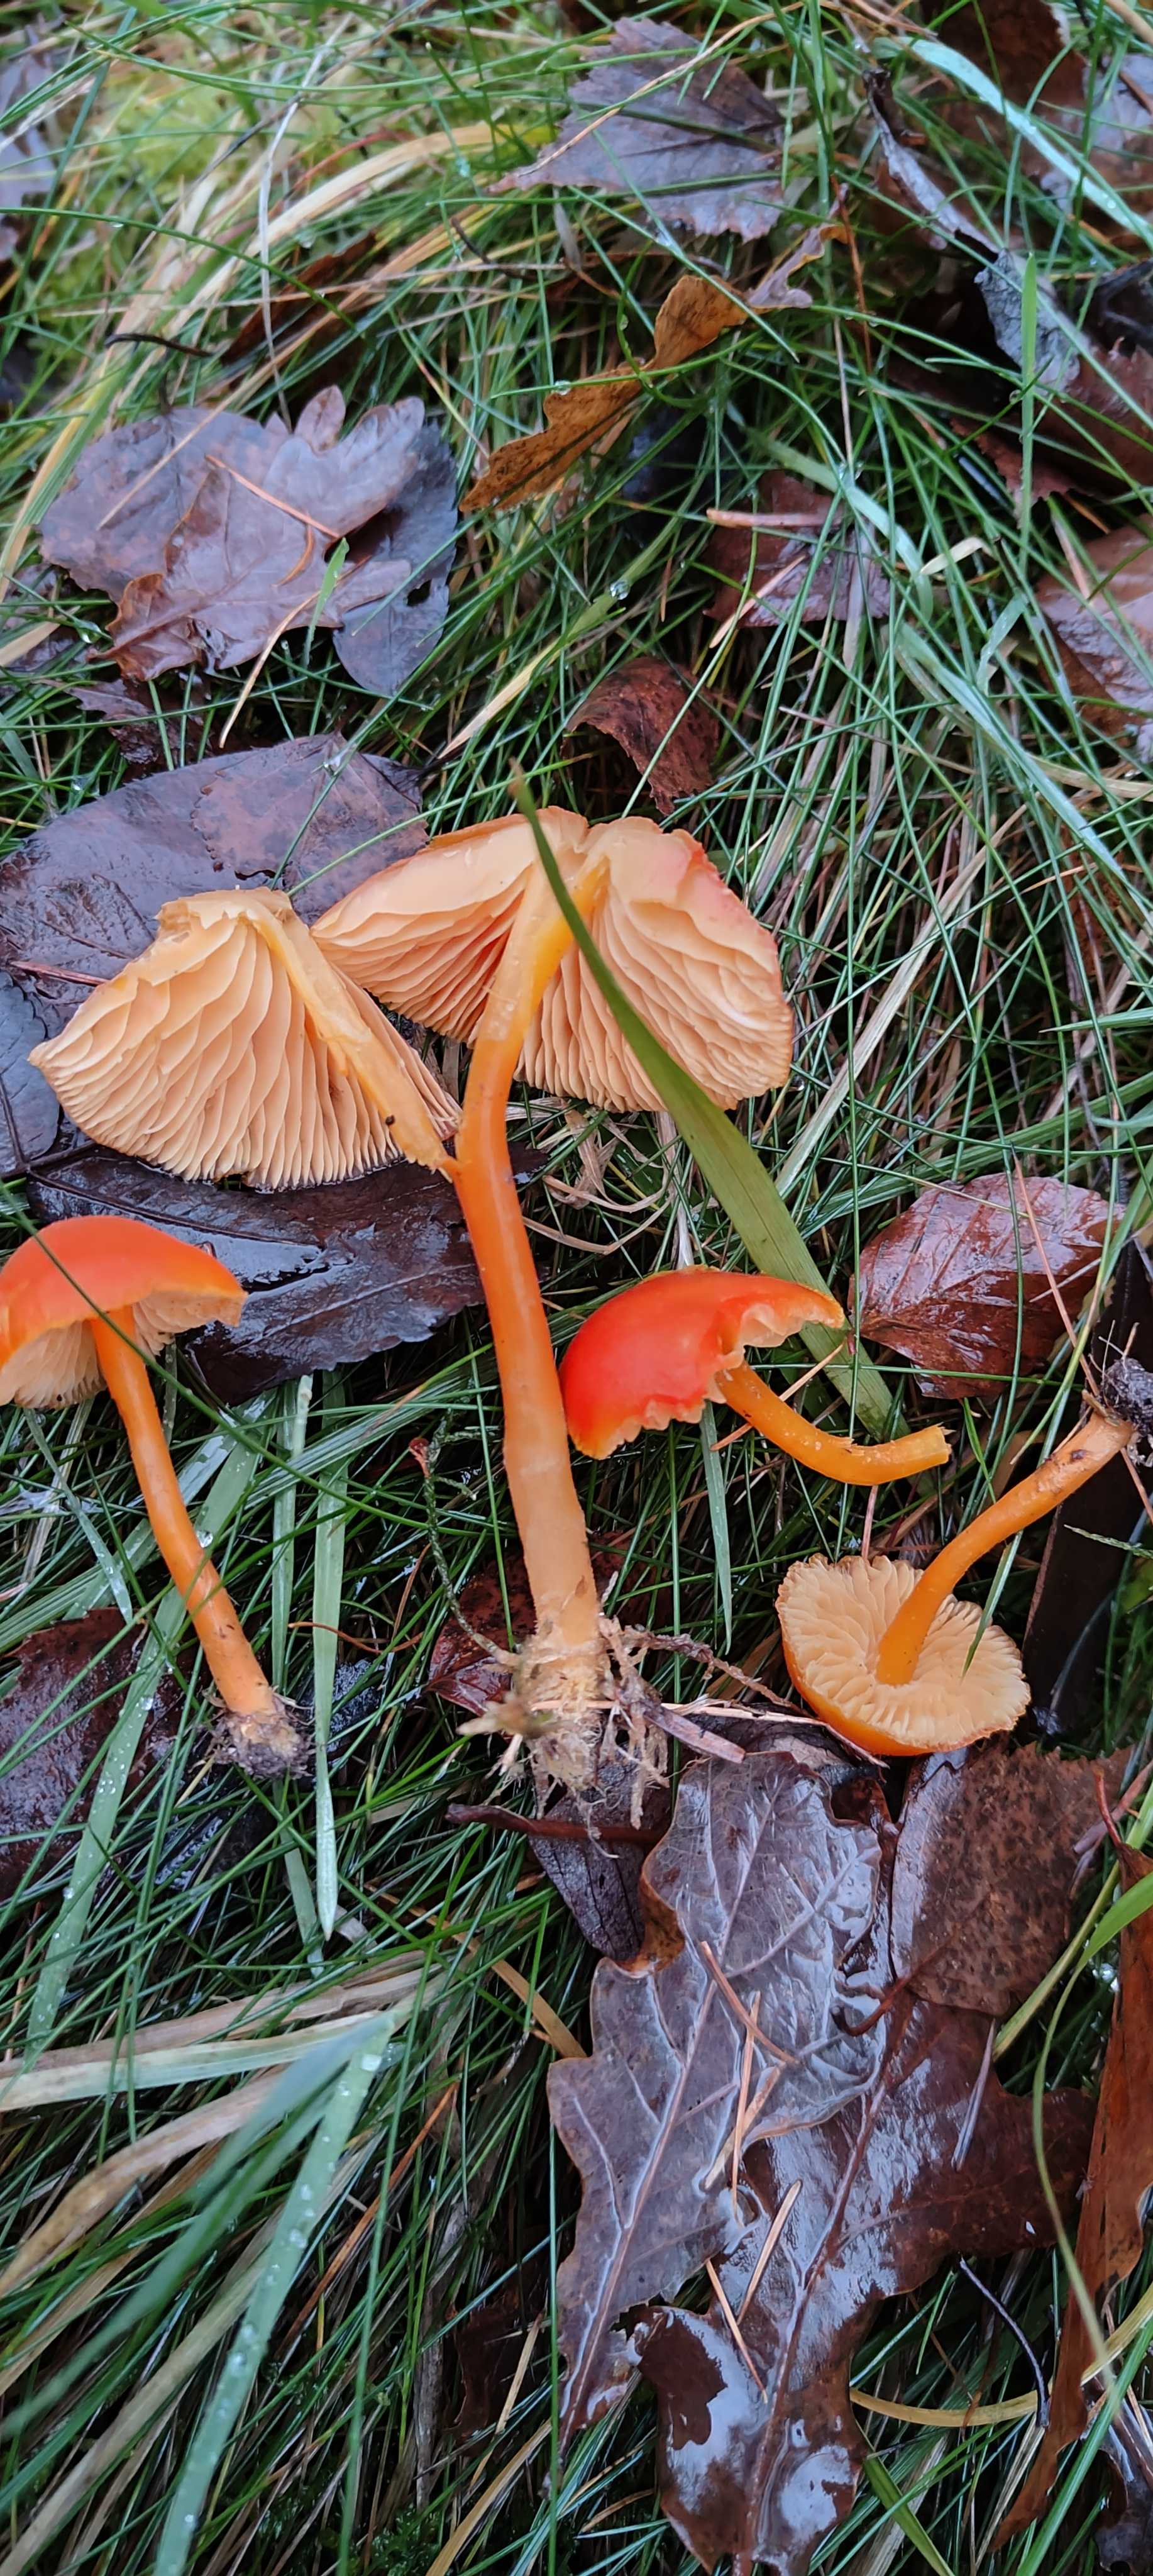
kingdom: Fungi
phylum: Basidiomycota
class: Agaricomycetes
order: Agaricales
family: Hygrophoraceae
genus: Hygrocybe
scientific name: Hygrocybe miniata
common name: mønje-vokshat
